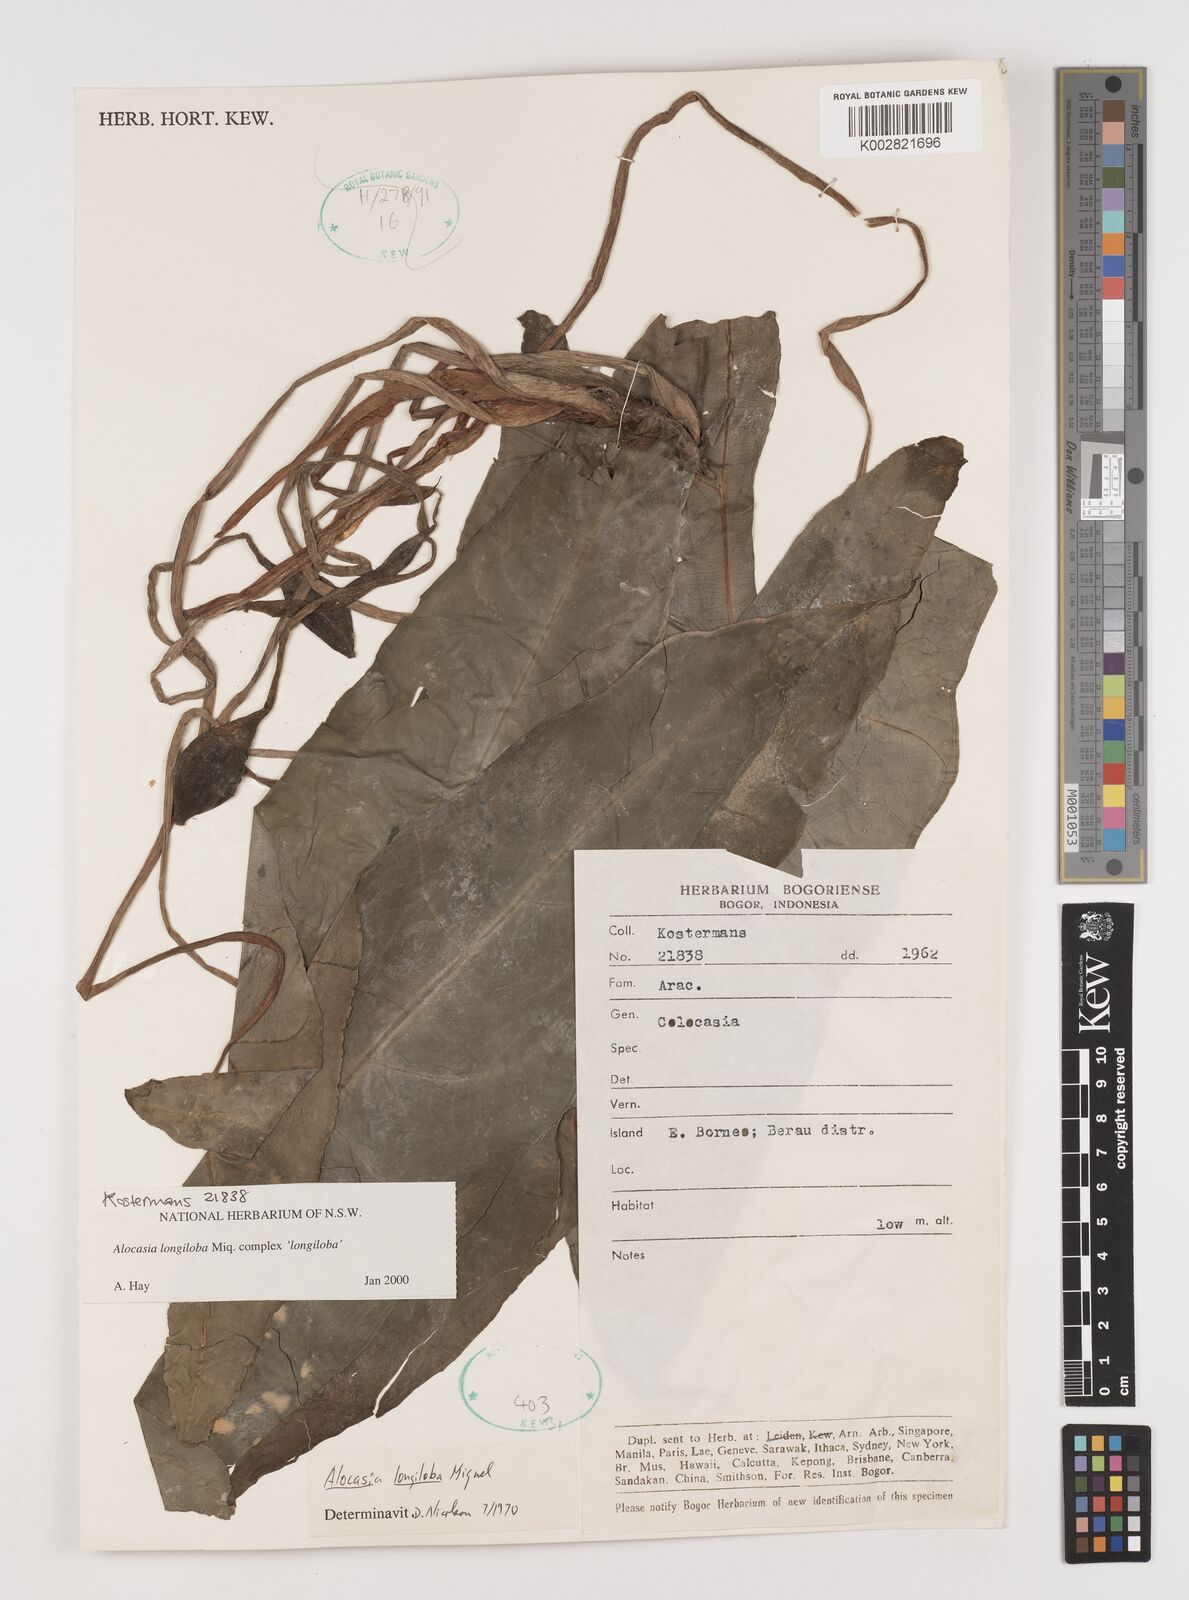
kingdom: Plantae
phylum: Tracheophyta
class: Liliopsida
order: Alismatales
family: Araceae
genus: Alocasia
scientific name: Alocasia longiloba
